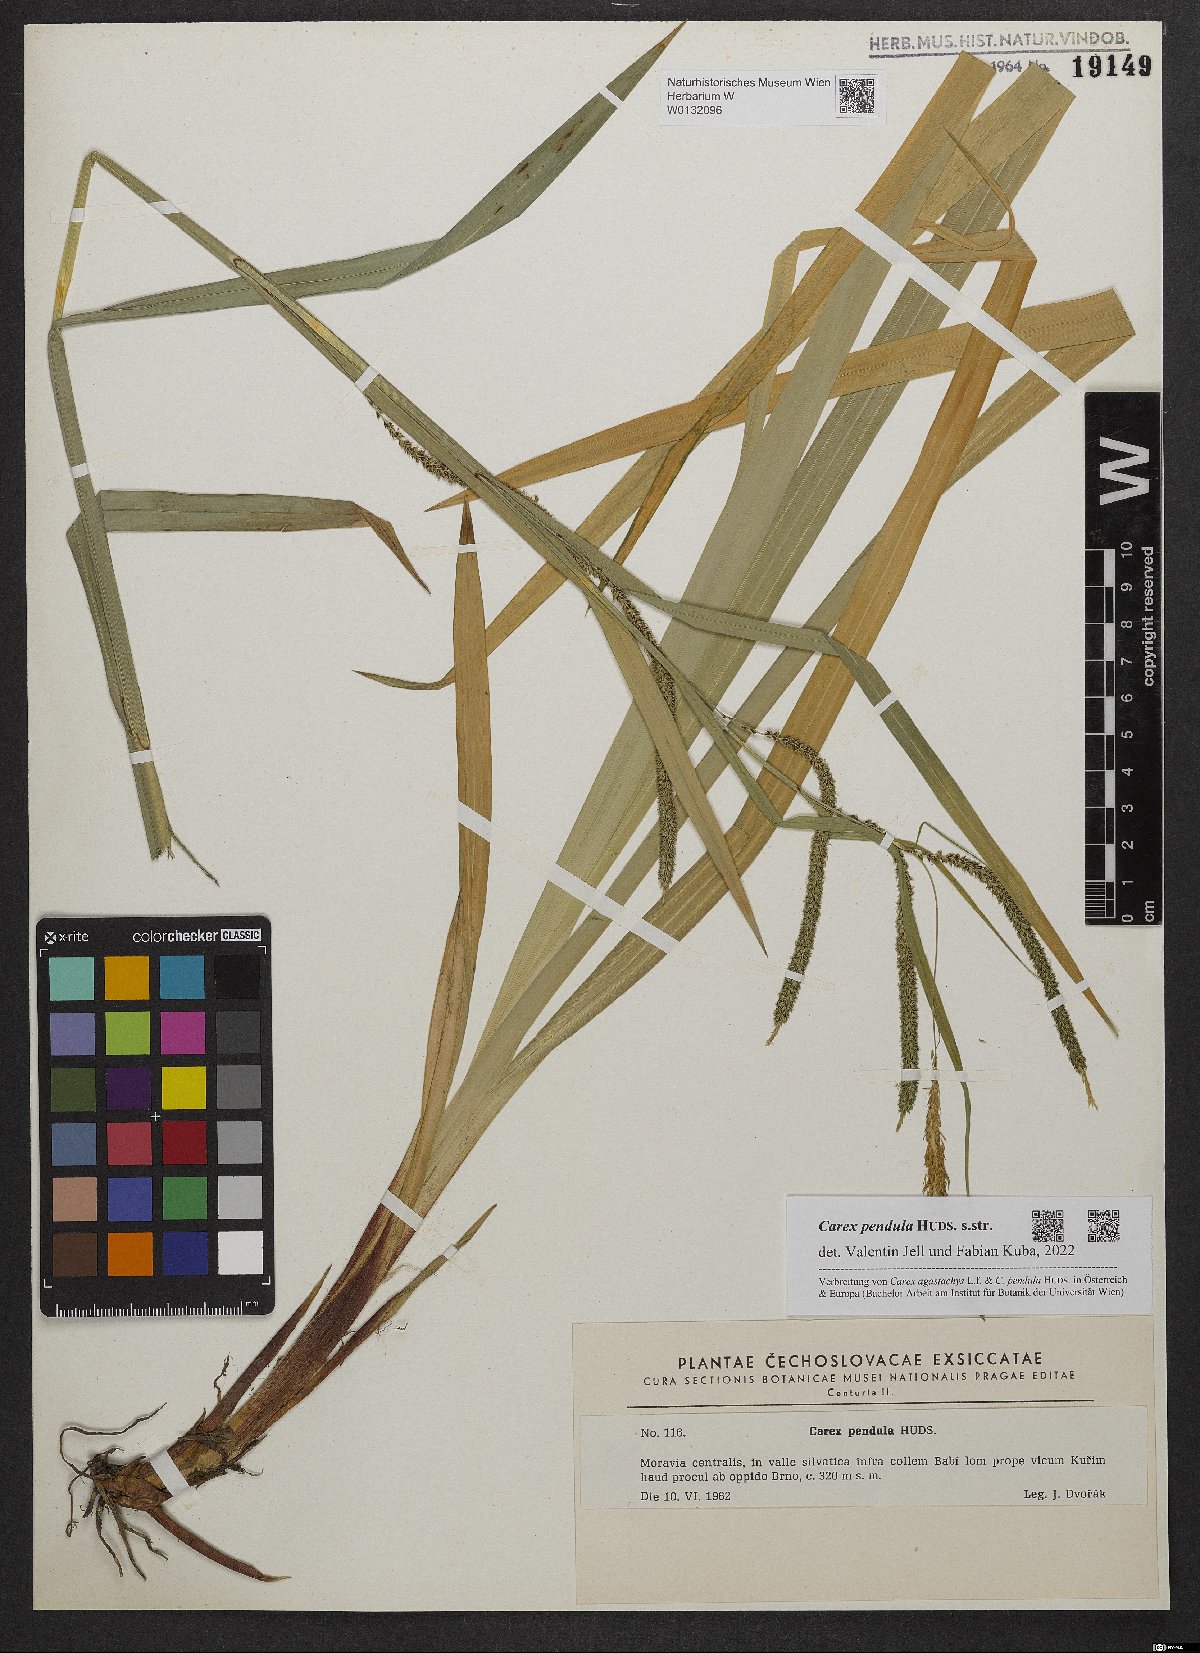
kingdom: Plantae
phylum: Tracheophyta
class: Liliopsida
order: Poales
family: Cyperaceae
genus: Carex
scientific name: Carex pendula
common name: Pendulous sedge
